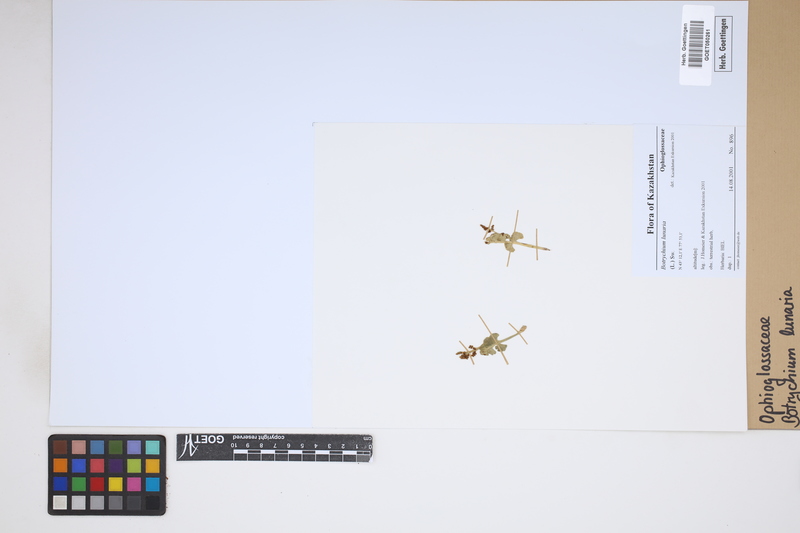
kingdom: Plantae
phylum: Tracheophyta
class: Polypodiopsida
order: Ophioglossales
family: Ophioglossaceae
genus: Botrychium
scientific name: Botrychium lunaria
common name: Moonwort
